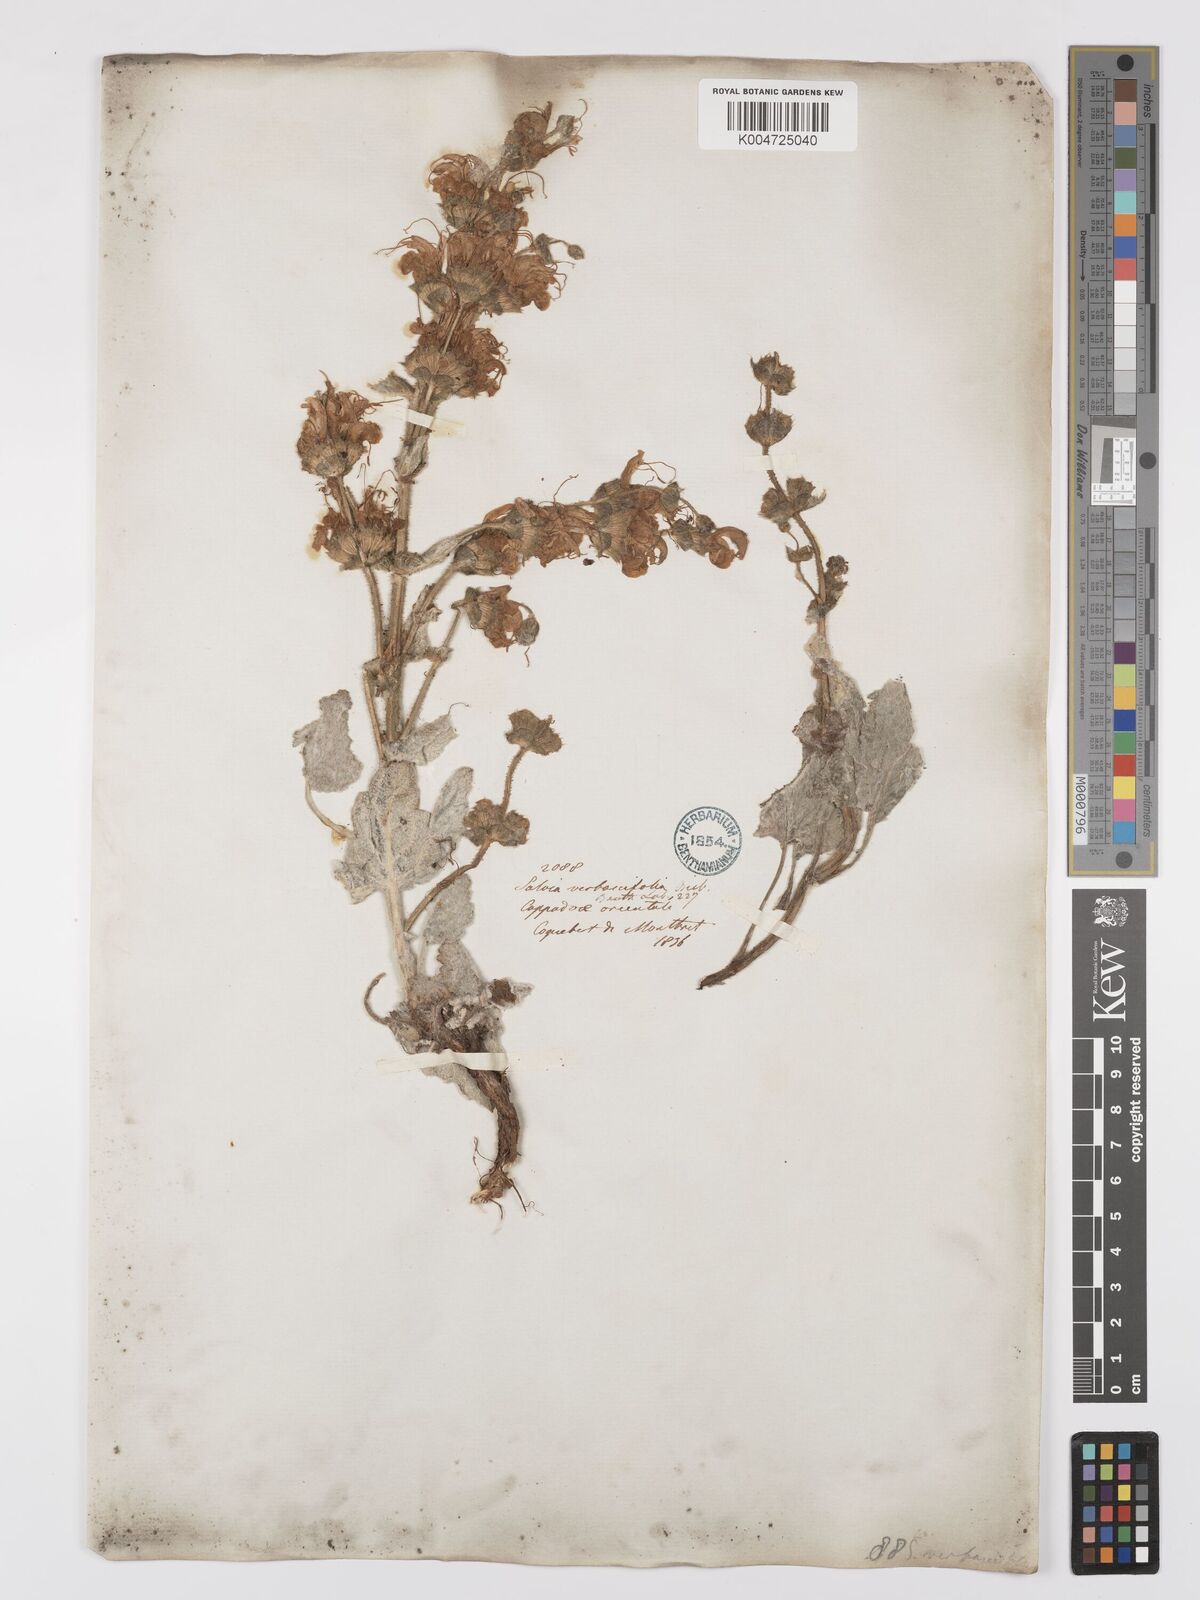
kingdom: Plantae
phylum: Tracheophyta
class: Magnoliopsida
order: Lamiales
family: Lamiaceae
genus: Salvia
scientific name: Salvia microstegia
